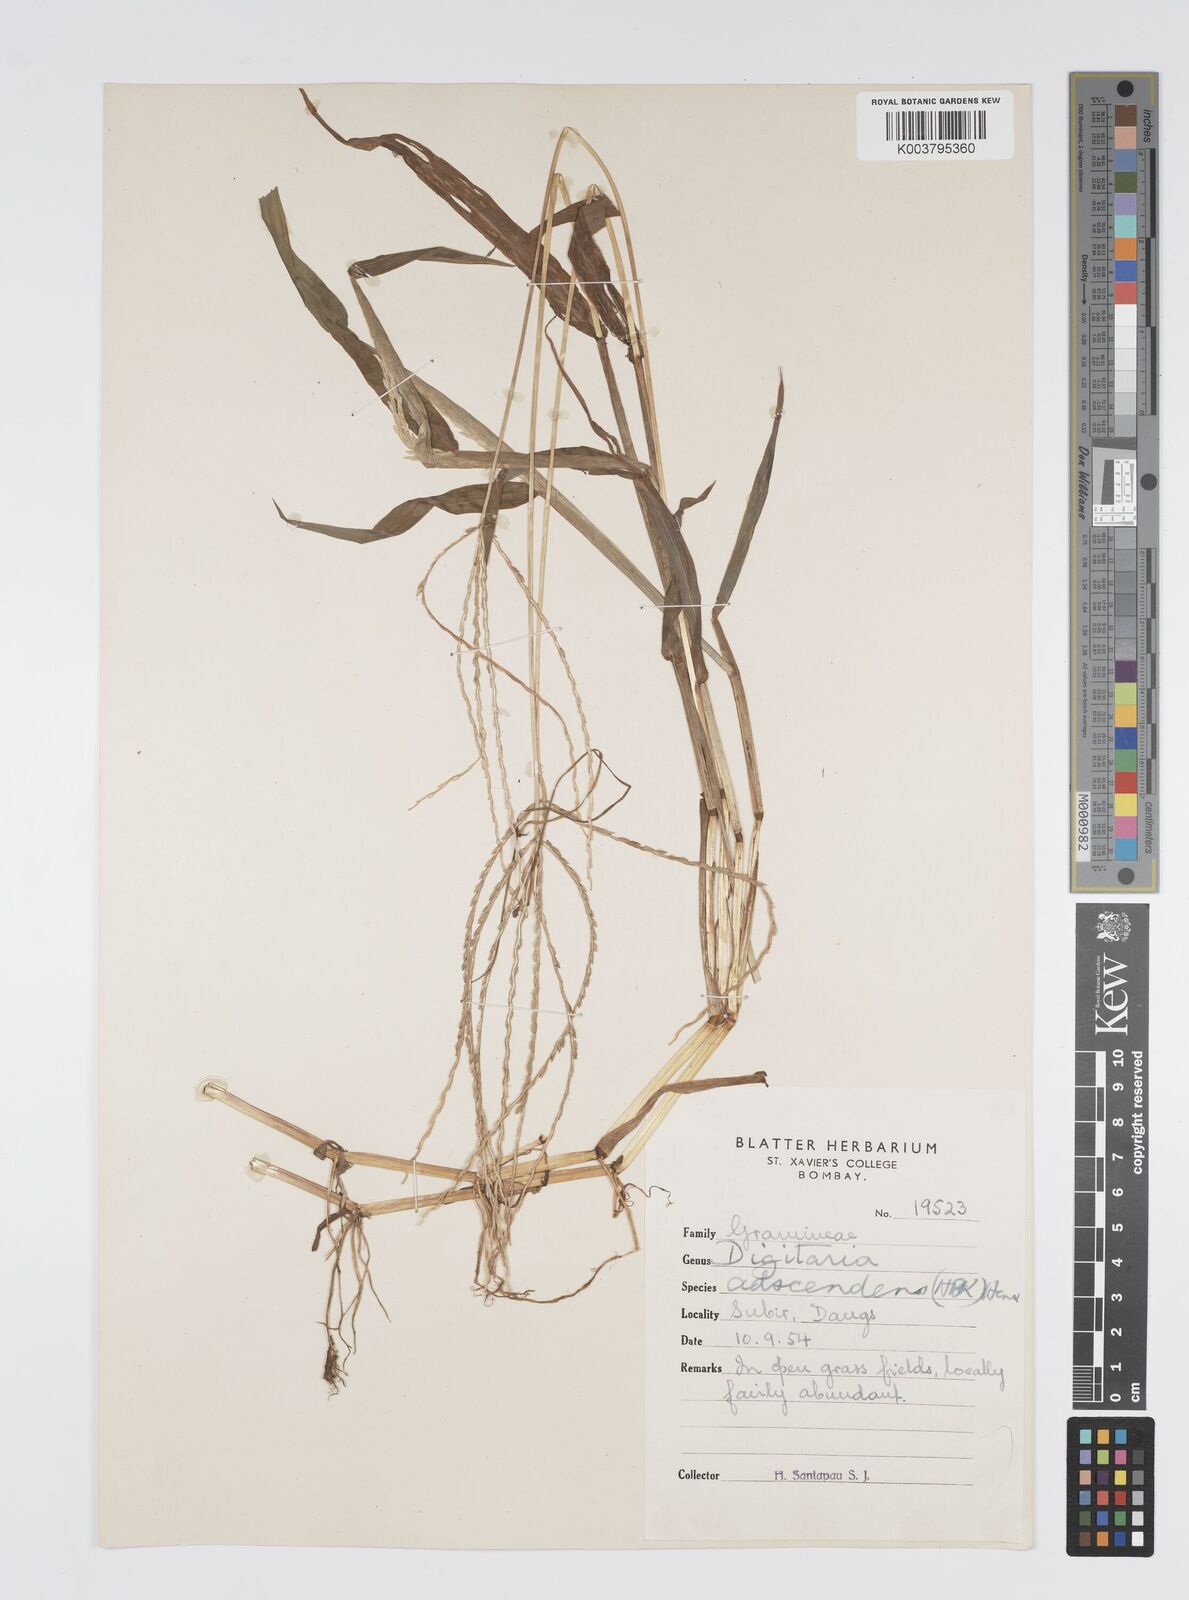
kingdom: Plantae
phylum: Tracheophyta
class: Liliopsida
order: Poales
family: Poaceae
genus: Digitaria
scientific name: Digitaria ciliaris
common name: Tropical finger-grass
